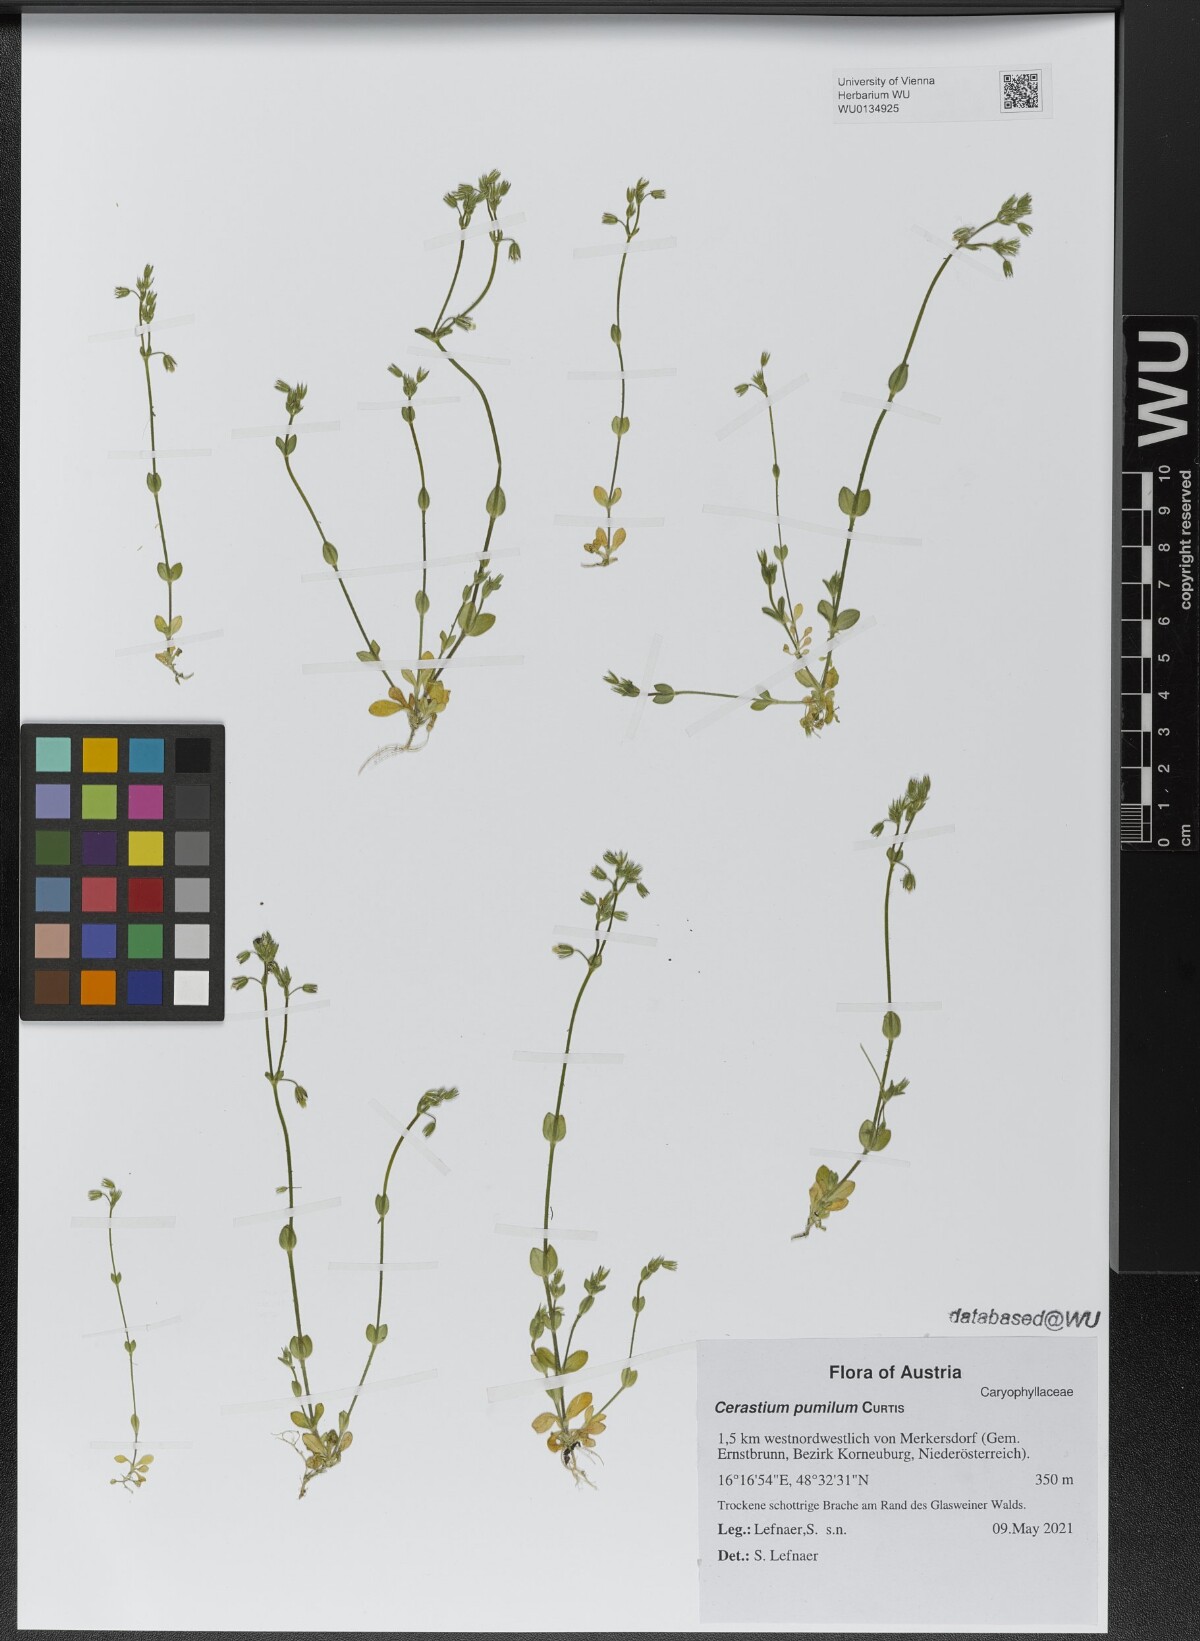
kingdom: Plantae
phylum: Tracheophyta
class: Magnoliopsida
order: Caryophyllales
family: Caryophyllaceae
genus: Cerastium
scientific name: Cerastium pumilum
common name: Dwarf mouse-ear
